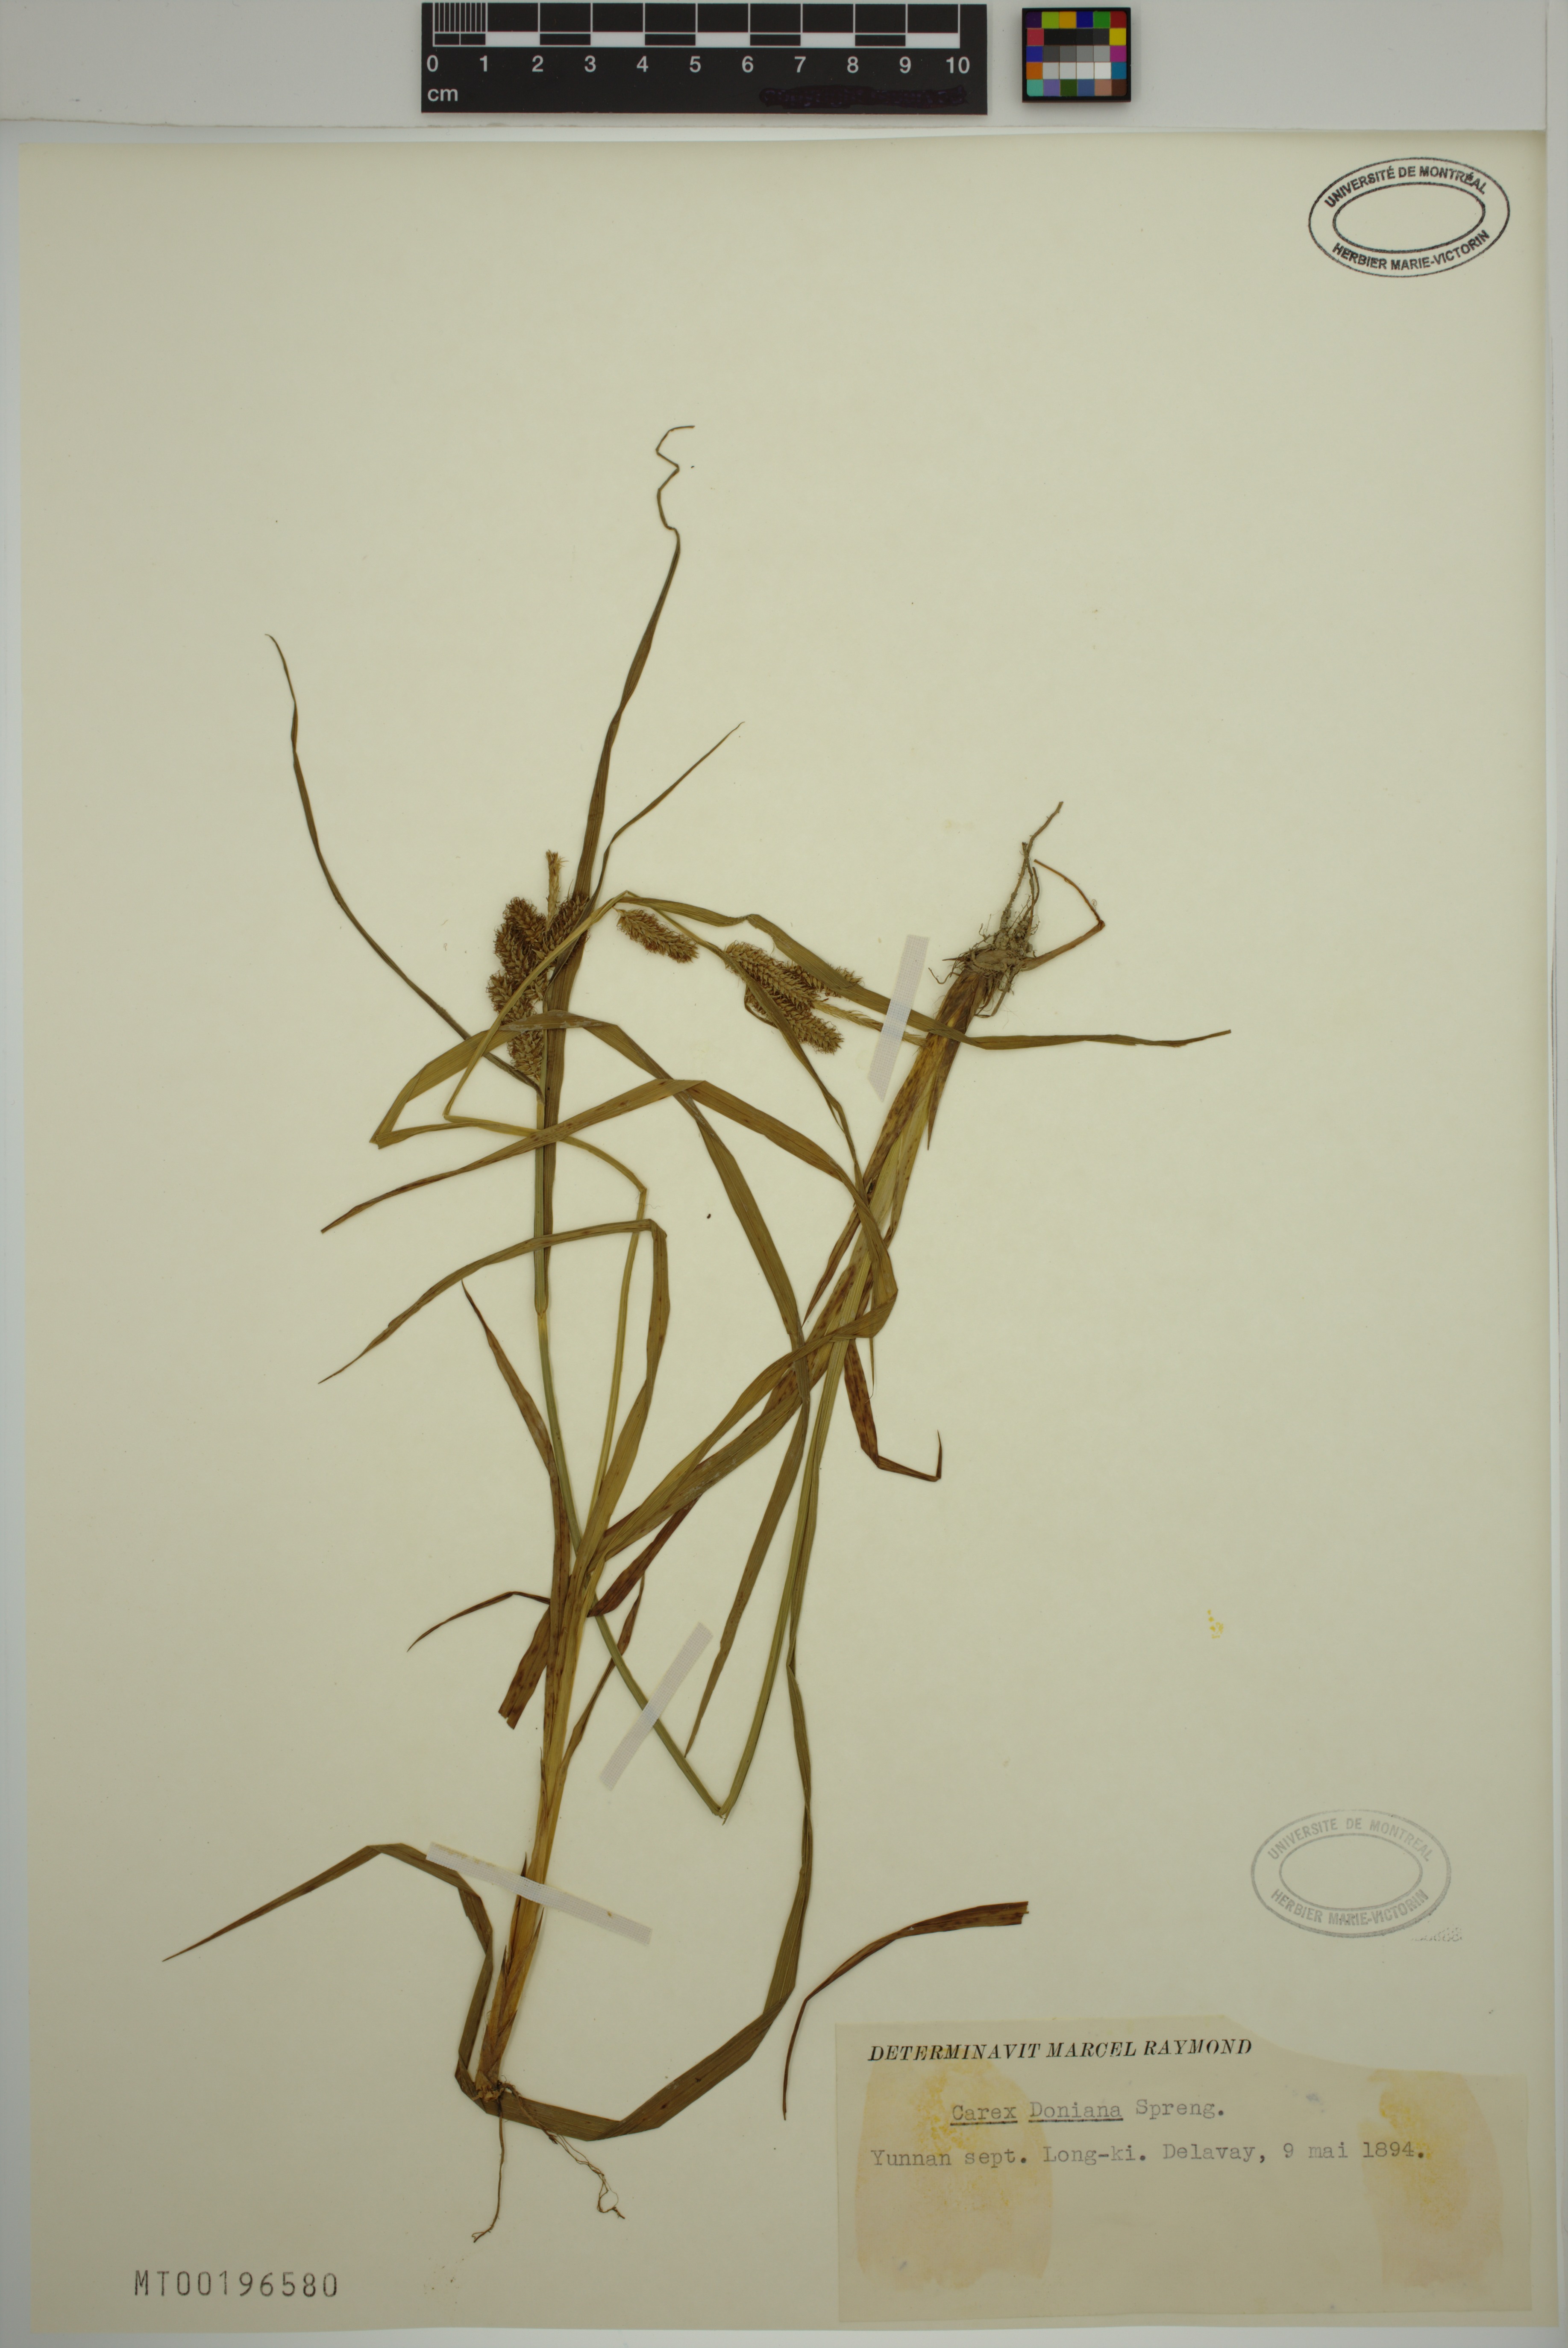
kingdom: Plantae
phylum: Tracheophyta
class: Liliopsida
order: Poales
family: Cyperaceae
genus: Carex
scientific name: Carex doniana
